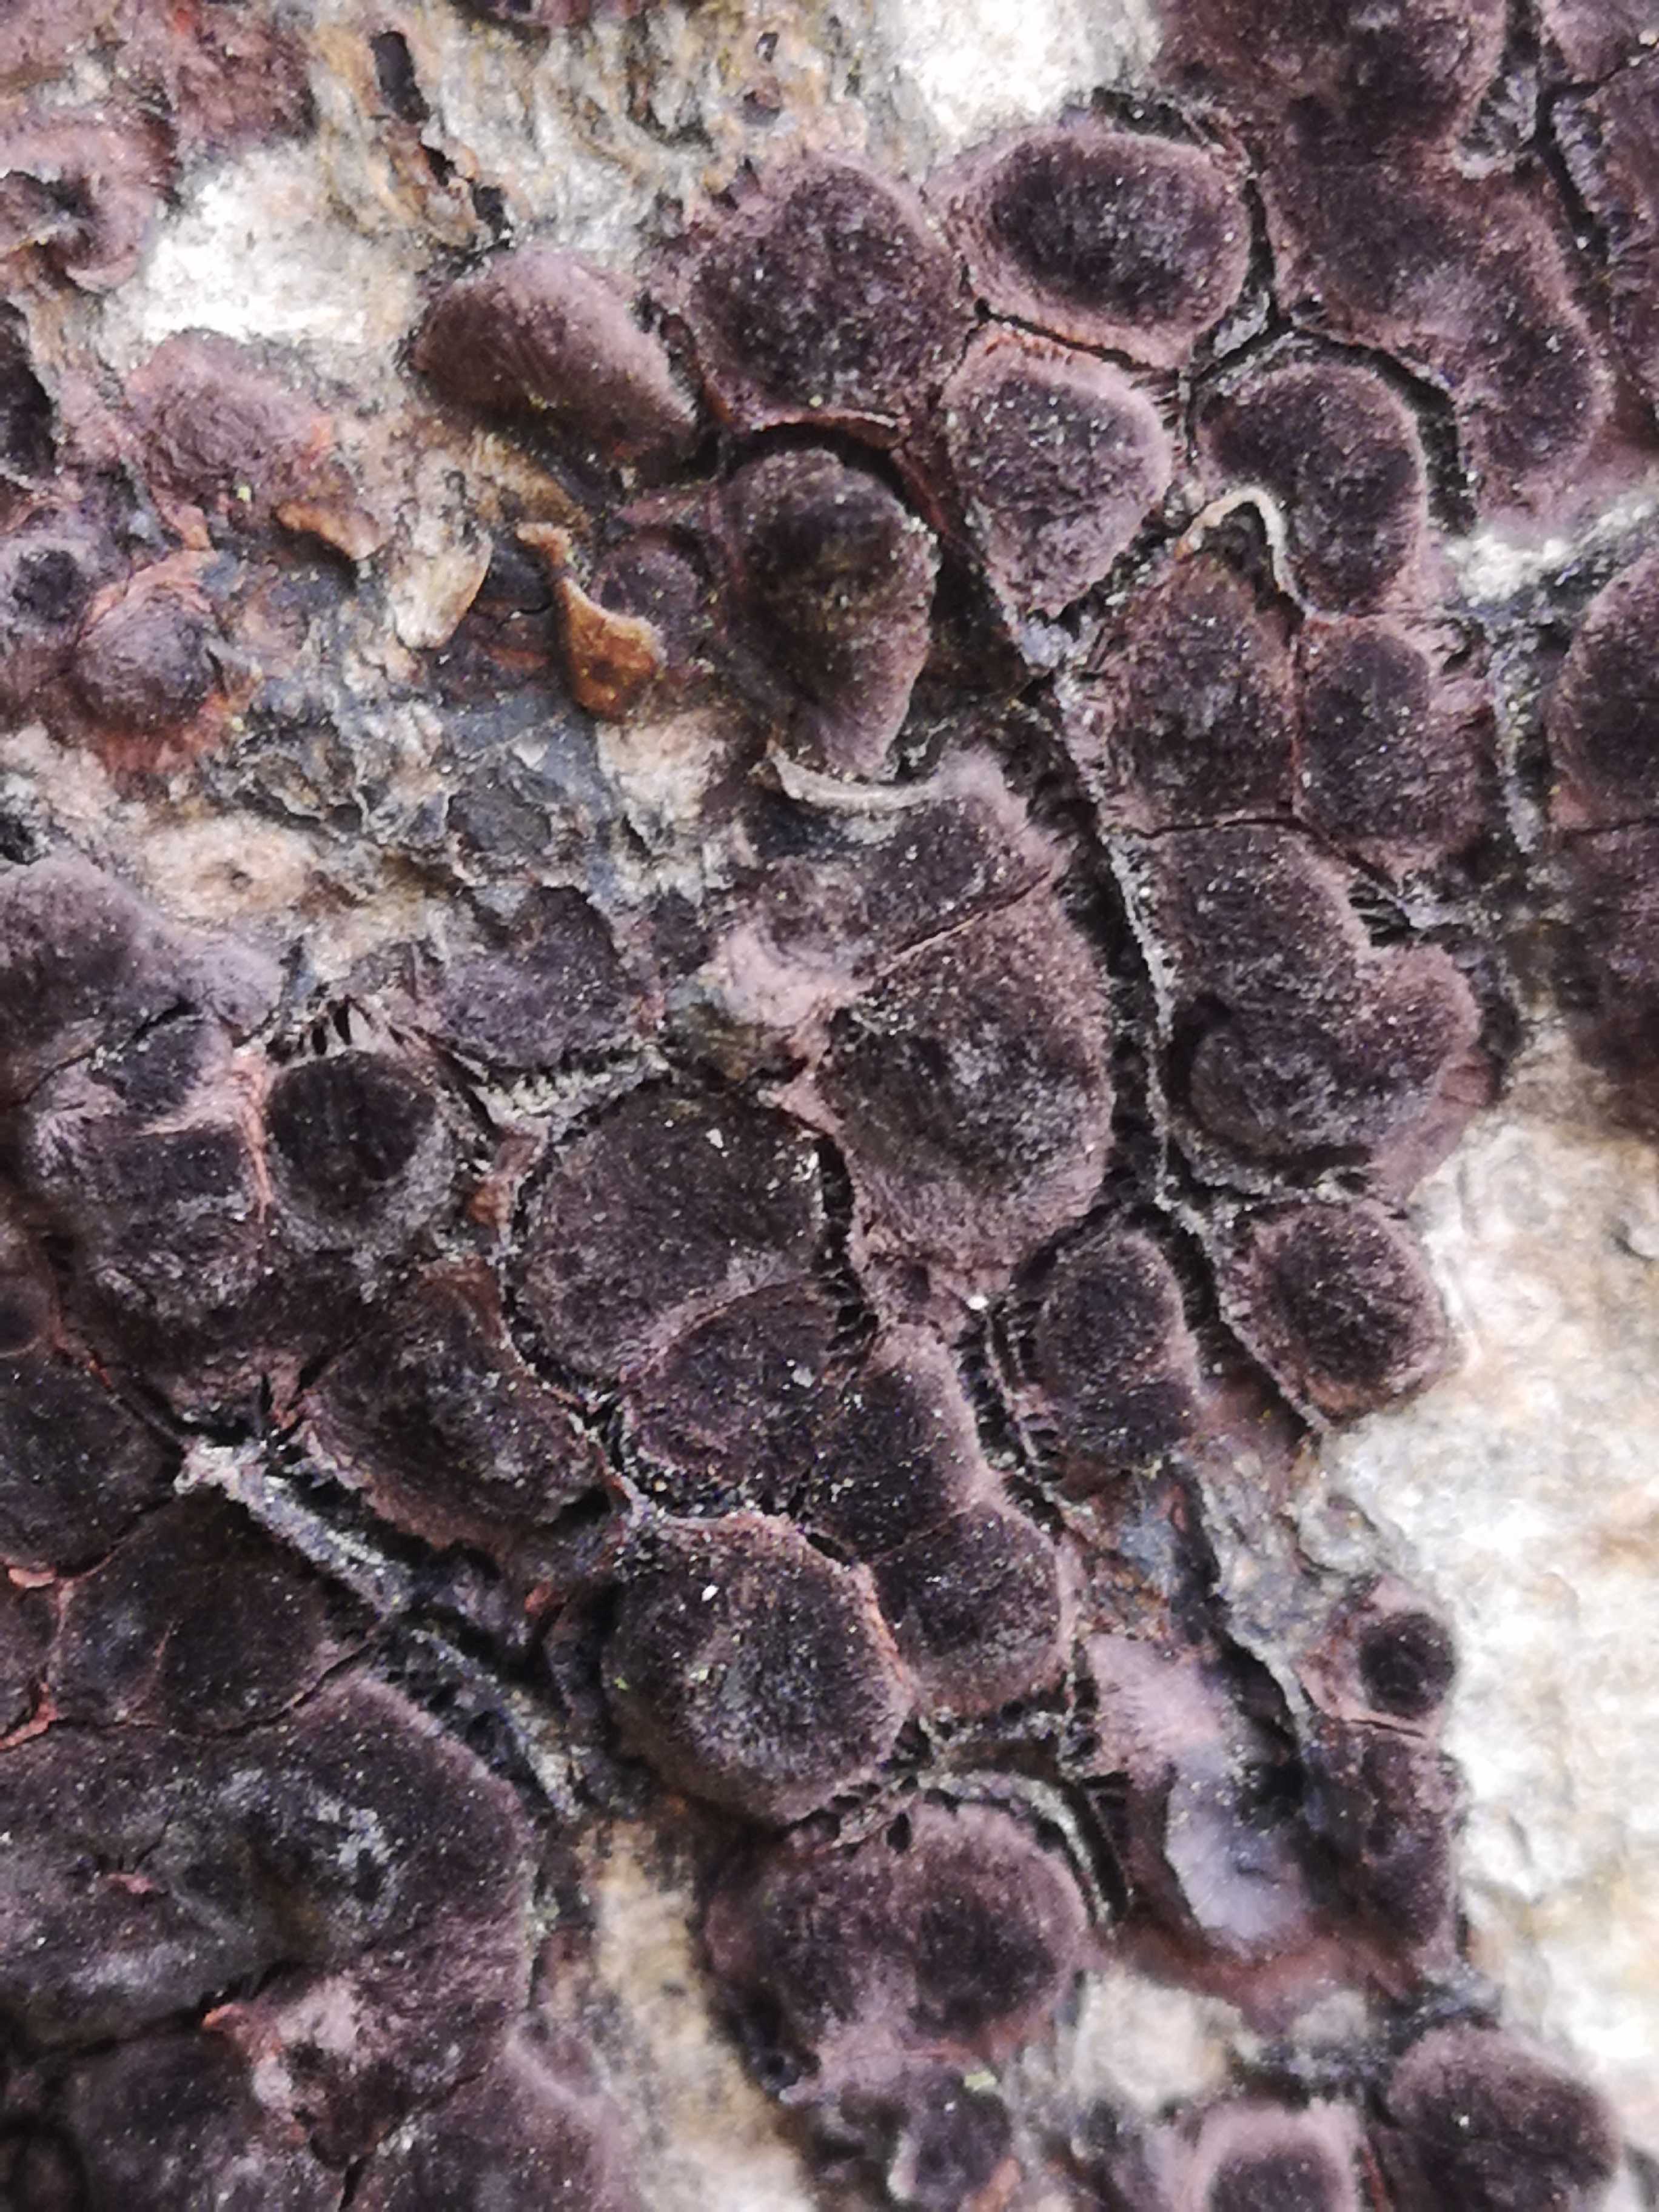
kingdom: Fungi
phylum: Ascomycota
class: Sordariomycetes
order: Xylariales
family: Hypoxylaceae
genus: Hypoxylon
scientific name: Hypoxylon
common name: kulbær
